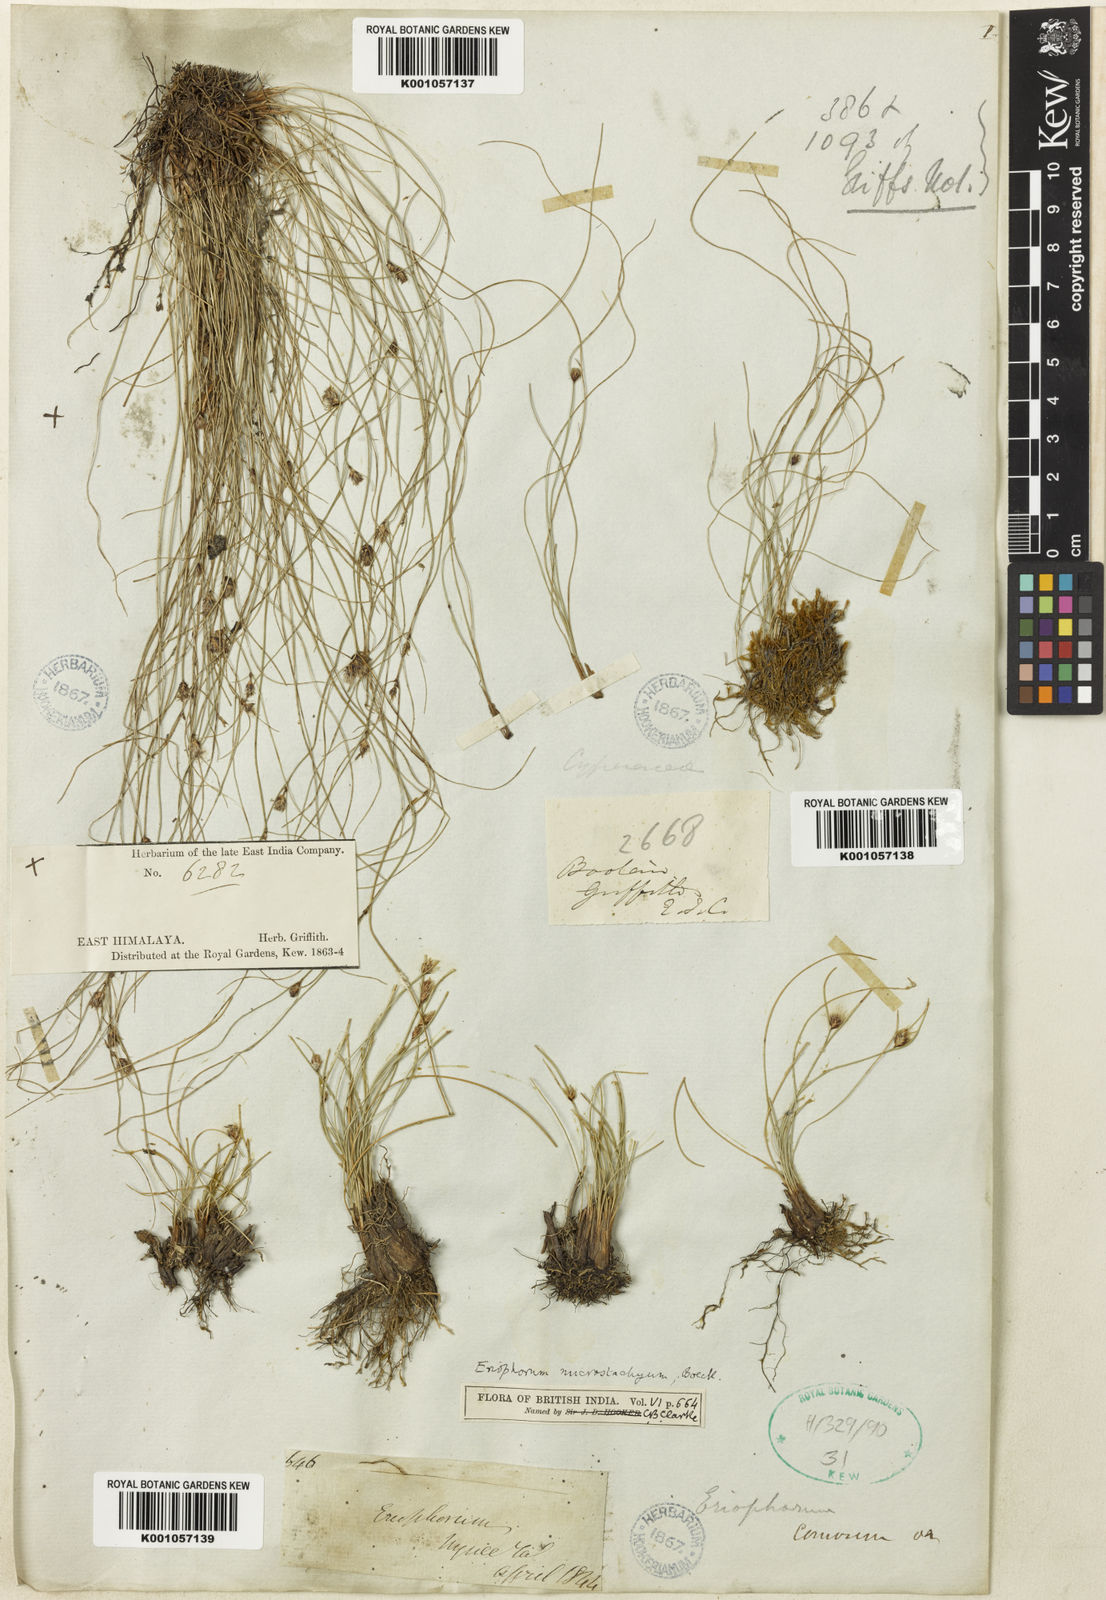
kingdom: Plantae
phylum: Tracheophyta
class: Liliopsida
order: Poales
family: Cyperaceae
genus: Erioscirpus
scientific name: Erioscirpus microstachyus
